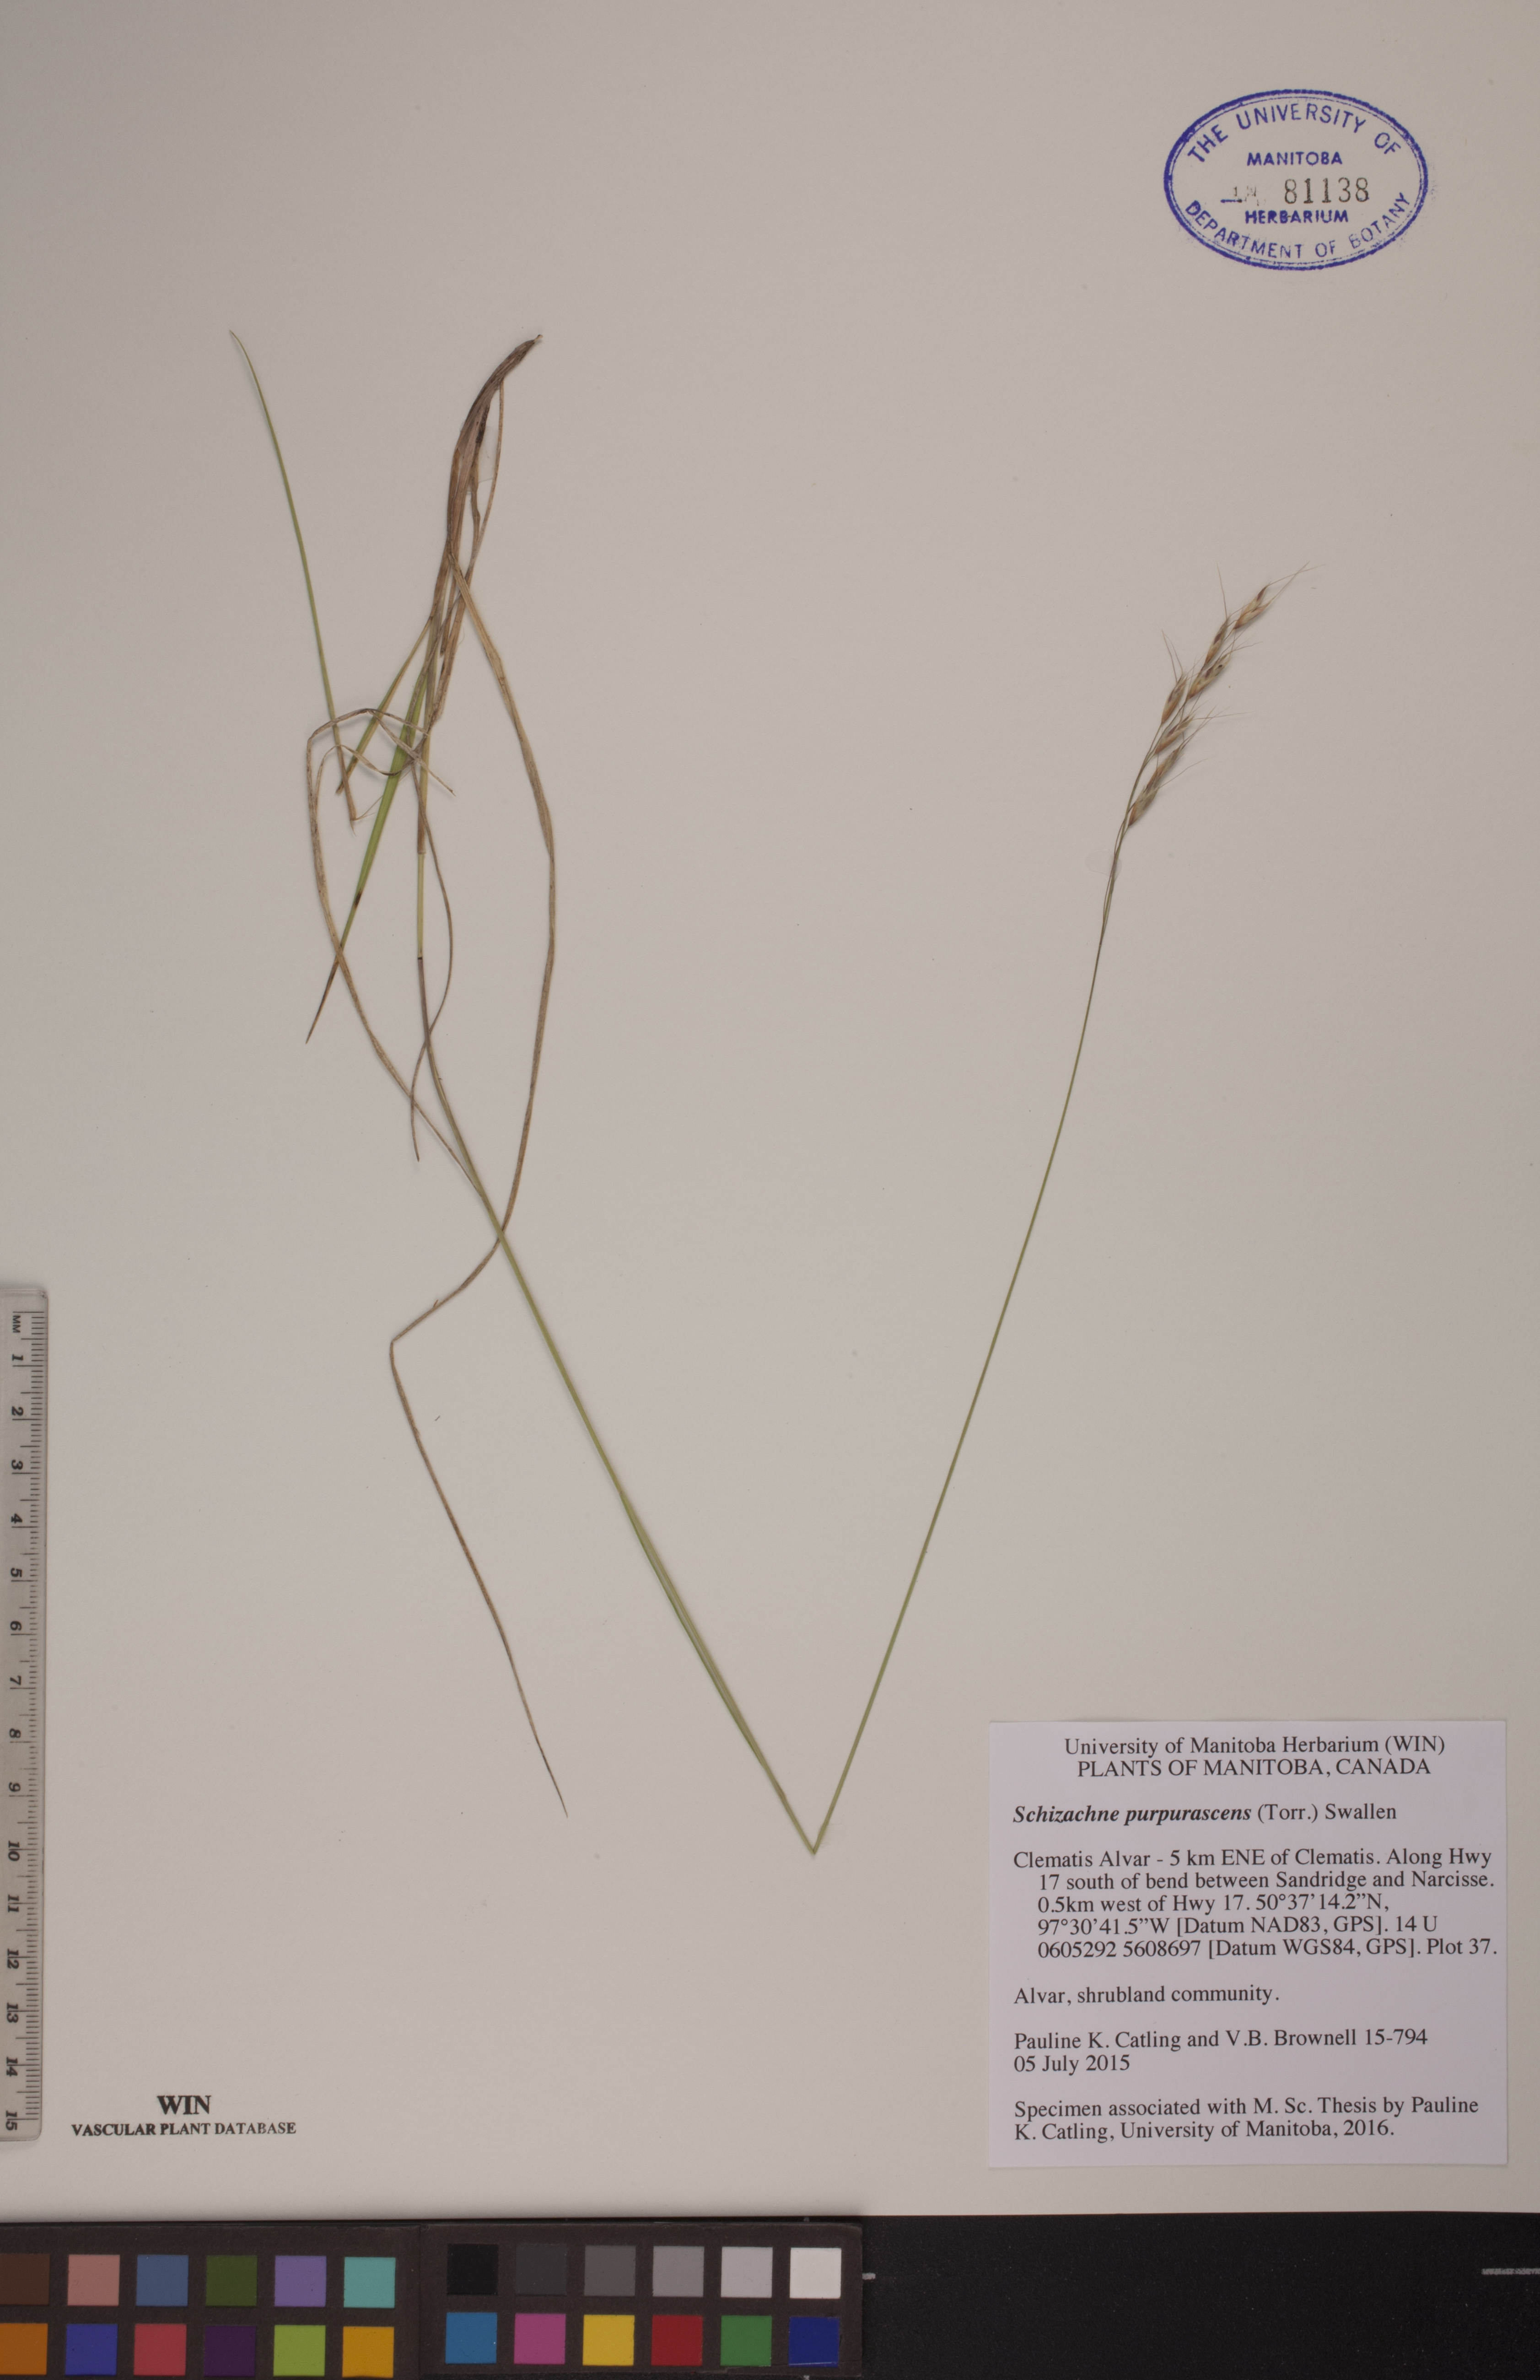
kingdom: Plantae
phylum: Tracheophyta
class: Liliopsida
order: Poales
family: Poaceae
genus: Schizachne
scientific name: Schizachne purpurascens
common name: False melic
